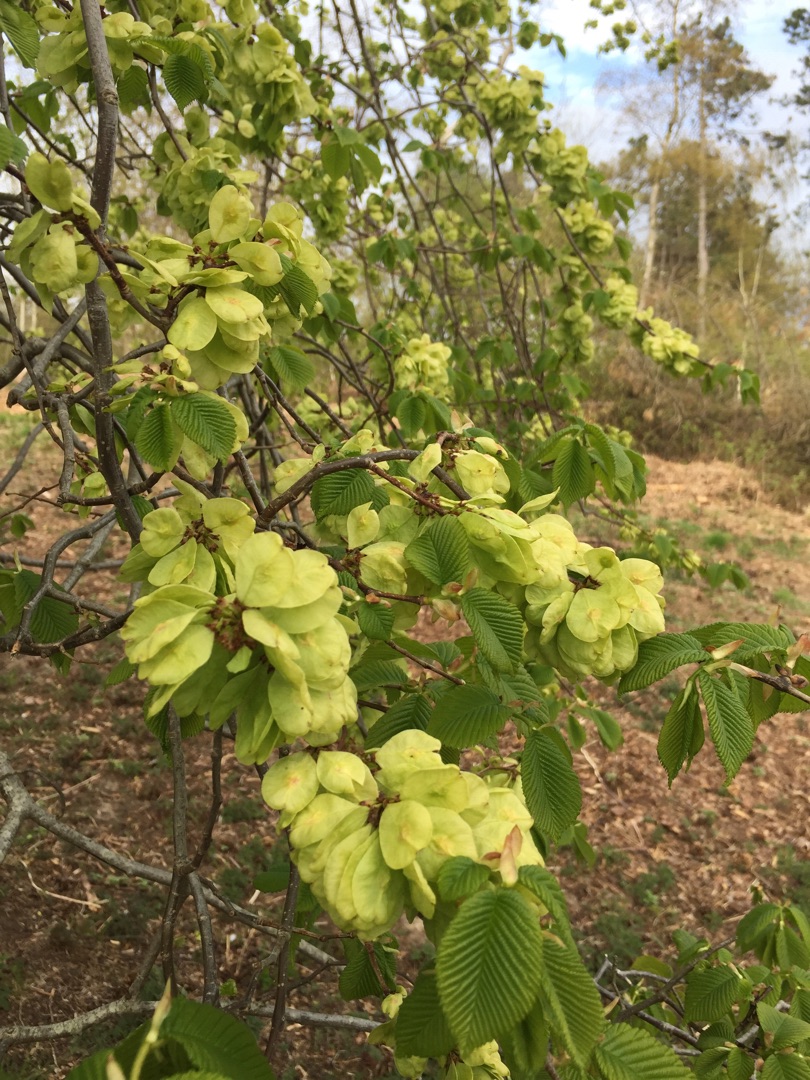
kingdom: Plantae
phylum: Tracheophyta
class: Magnoliopsida
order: Rosales
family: Ulmaceae
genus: Ulmus
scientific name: Ulmus glabra
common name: Skov-elm/storbladet elm
